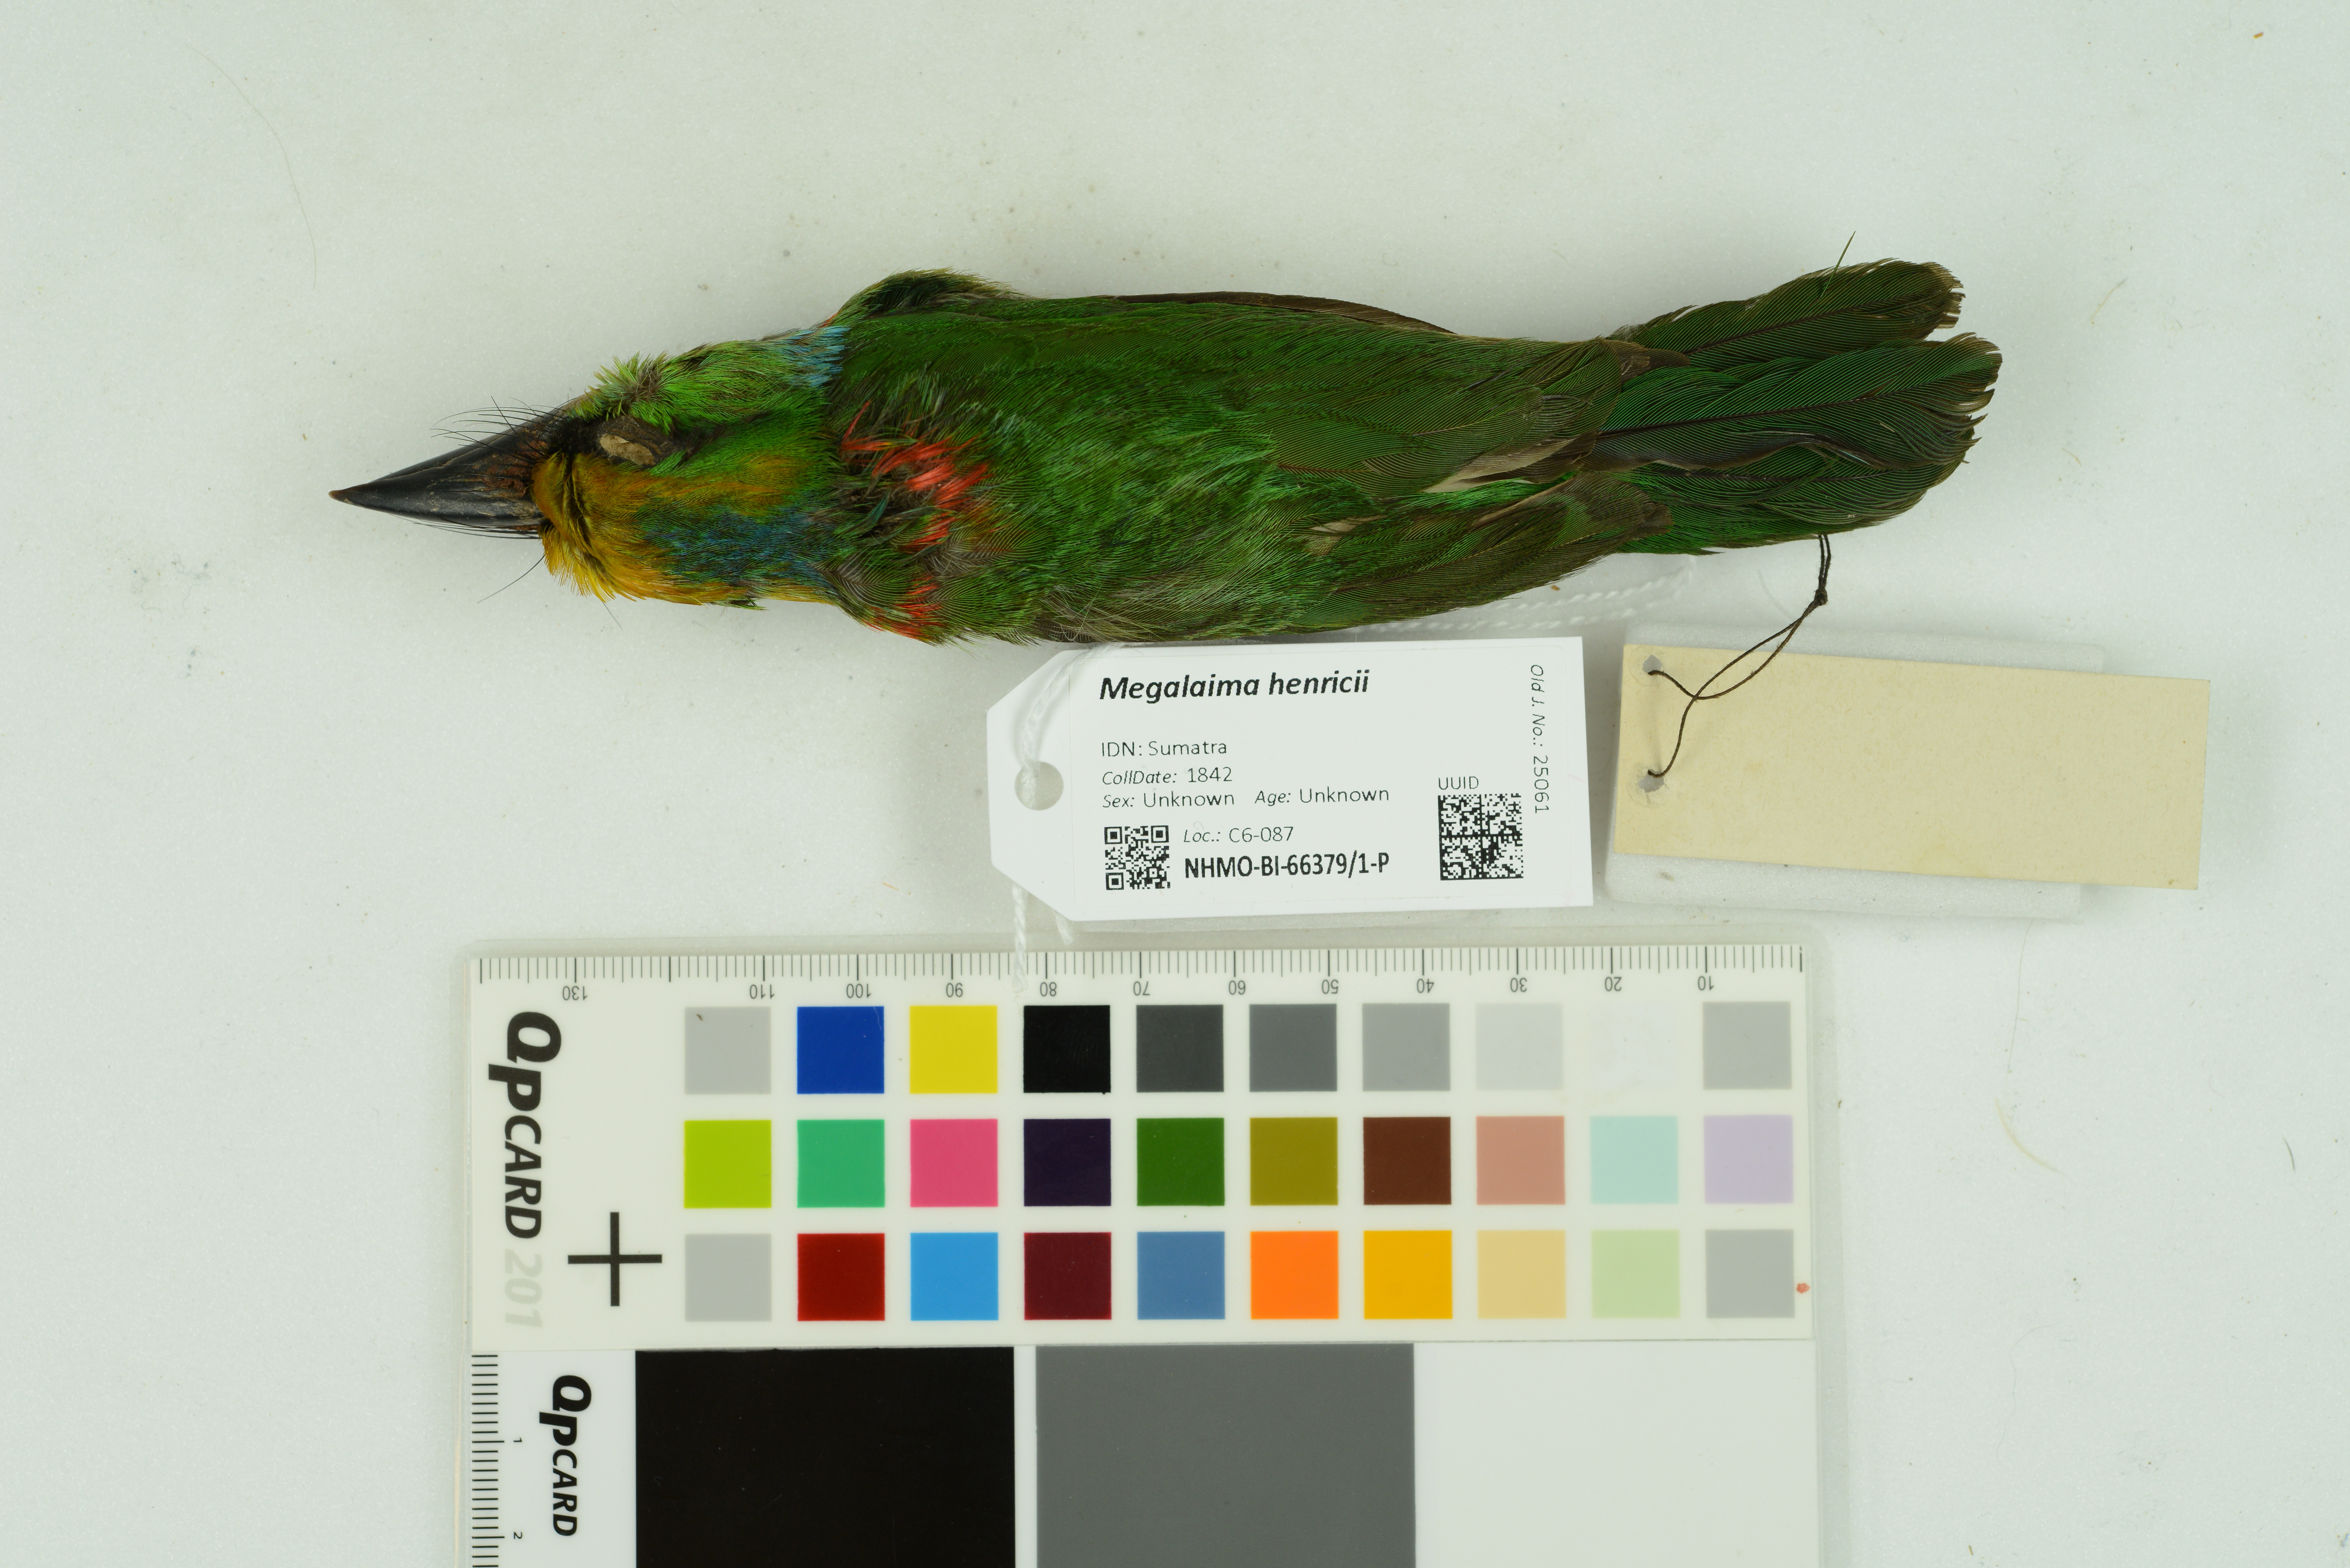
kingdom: Animalia
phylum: Chordata
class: Aves
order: Piciformes
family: Megalaimidae
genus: Psilopogon
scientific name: Psilopogon henricii
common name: Yellow-crowned barbet
